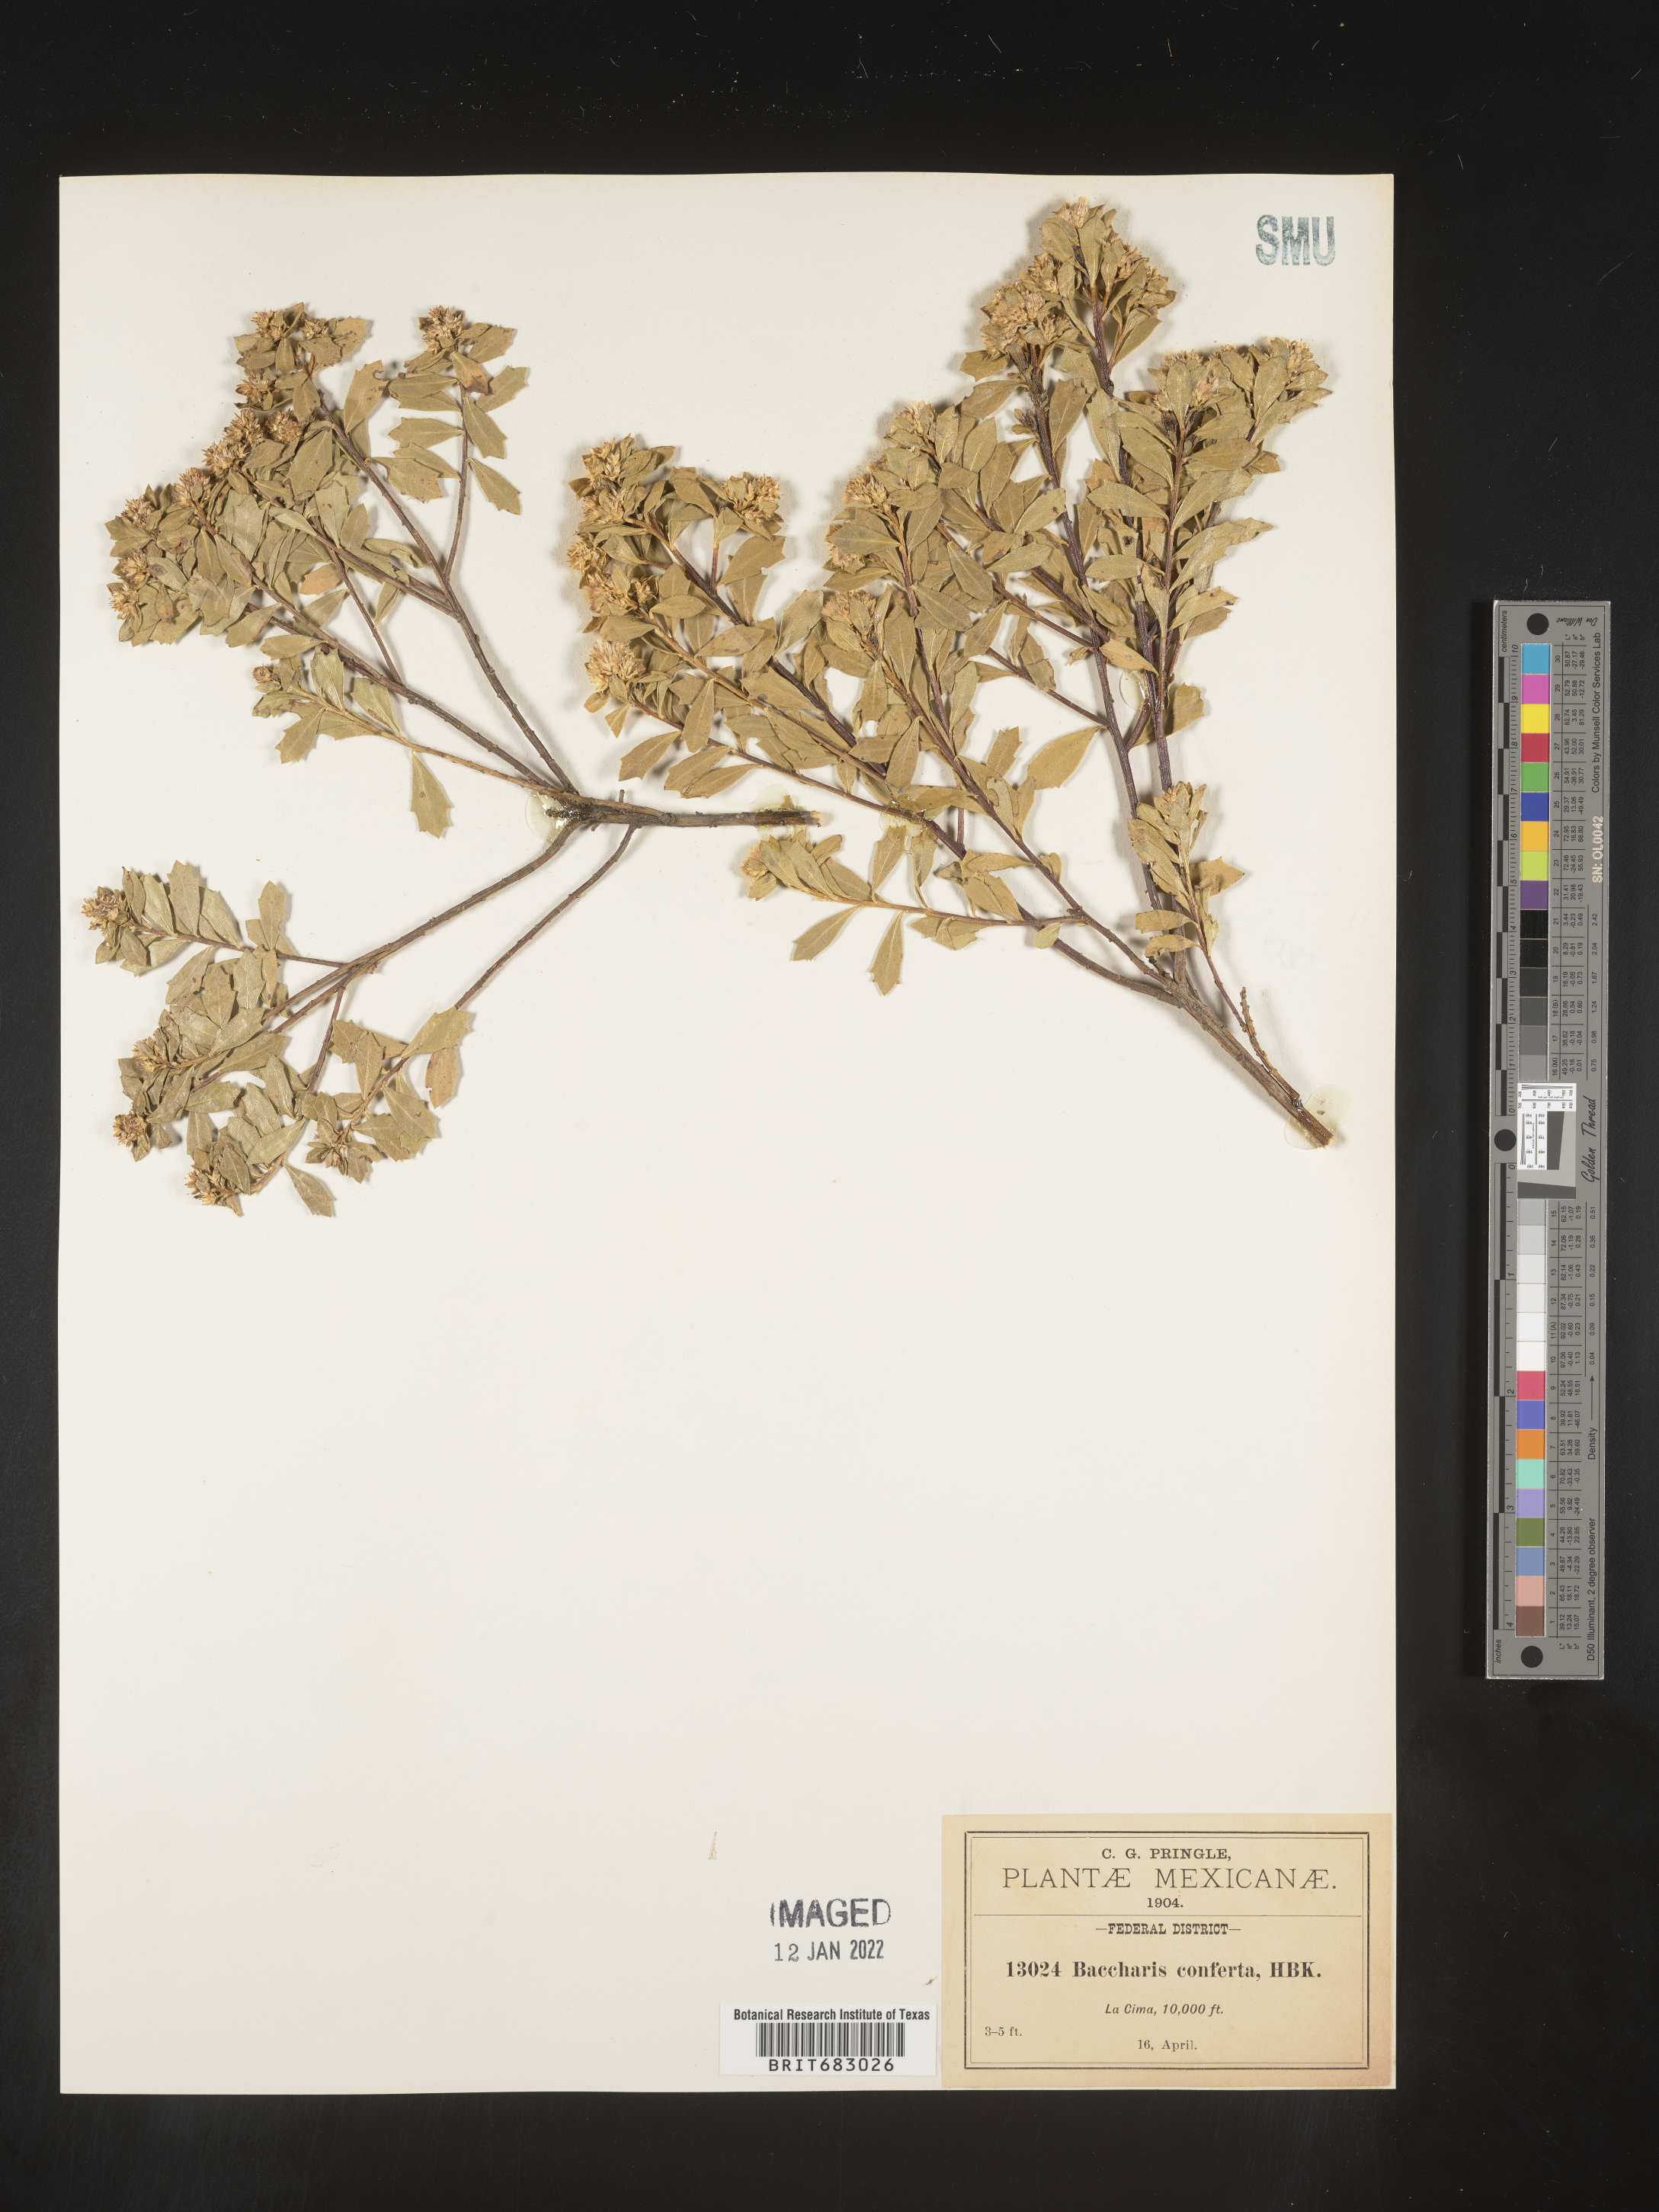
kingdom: Plantae
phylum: Tracheophyta
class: Magnoliopsida
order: Asterales
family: Asteraceae
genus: Baccharis
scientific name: Baccharis conferta
